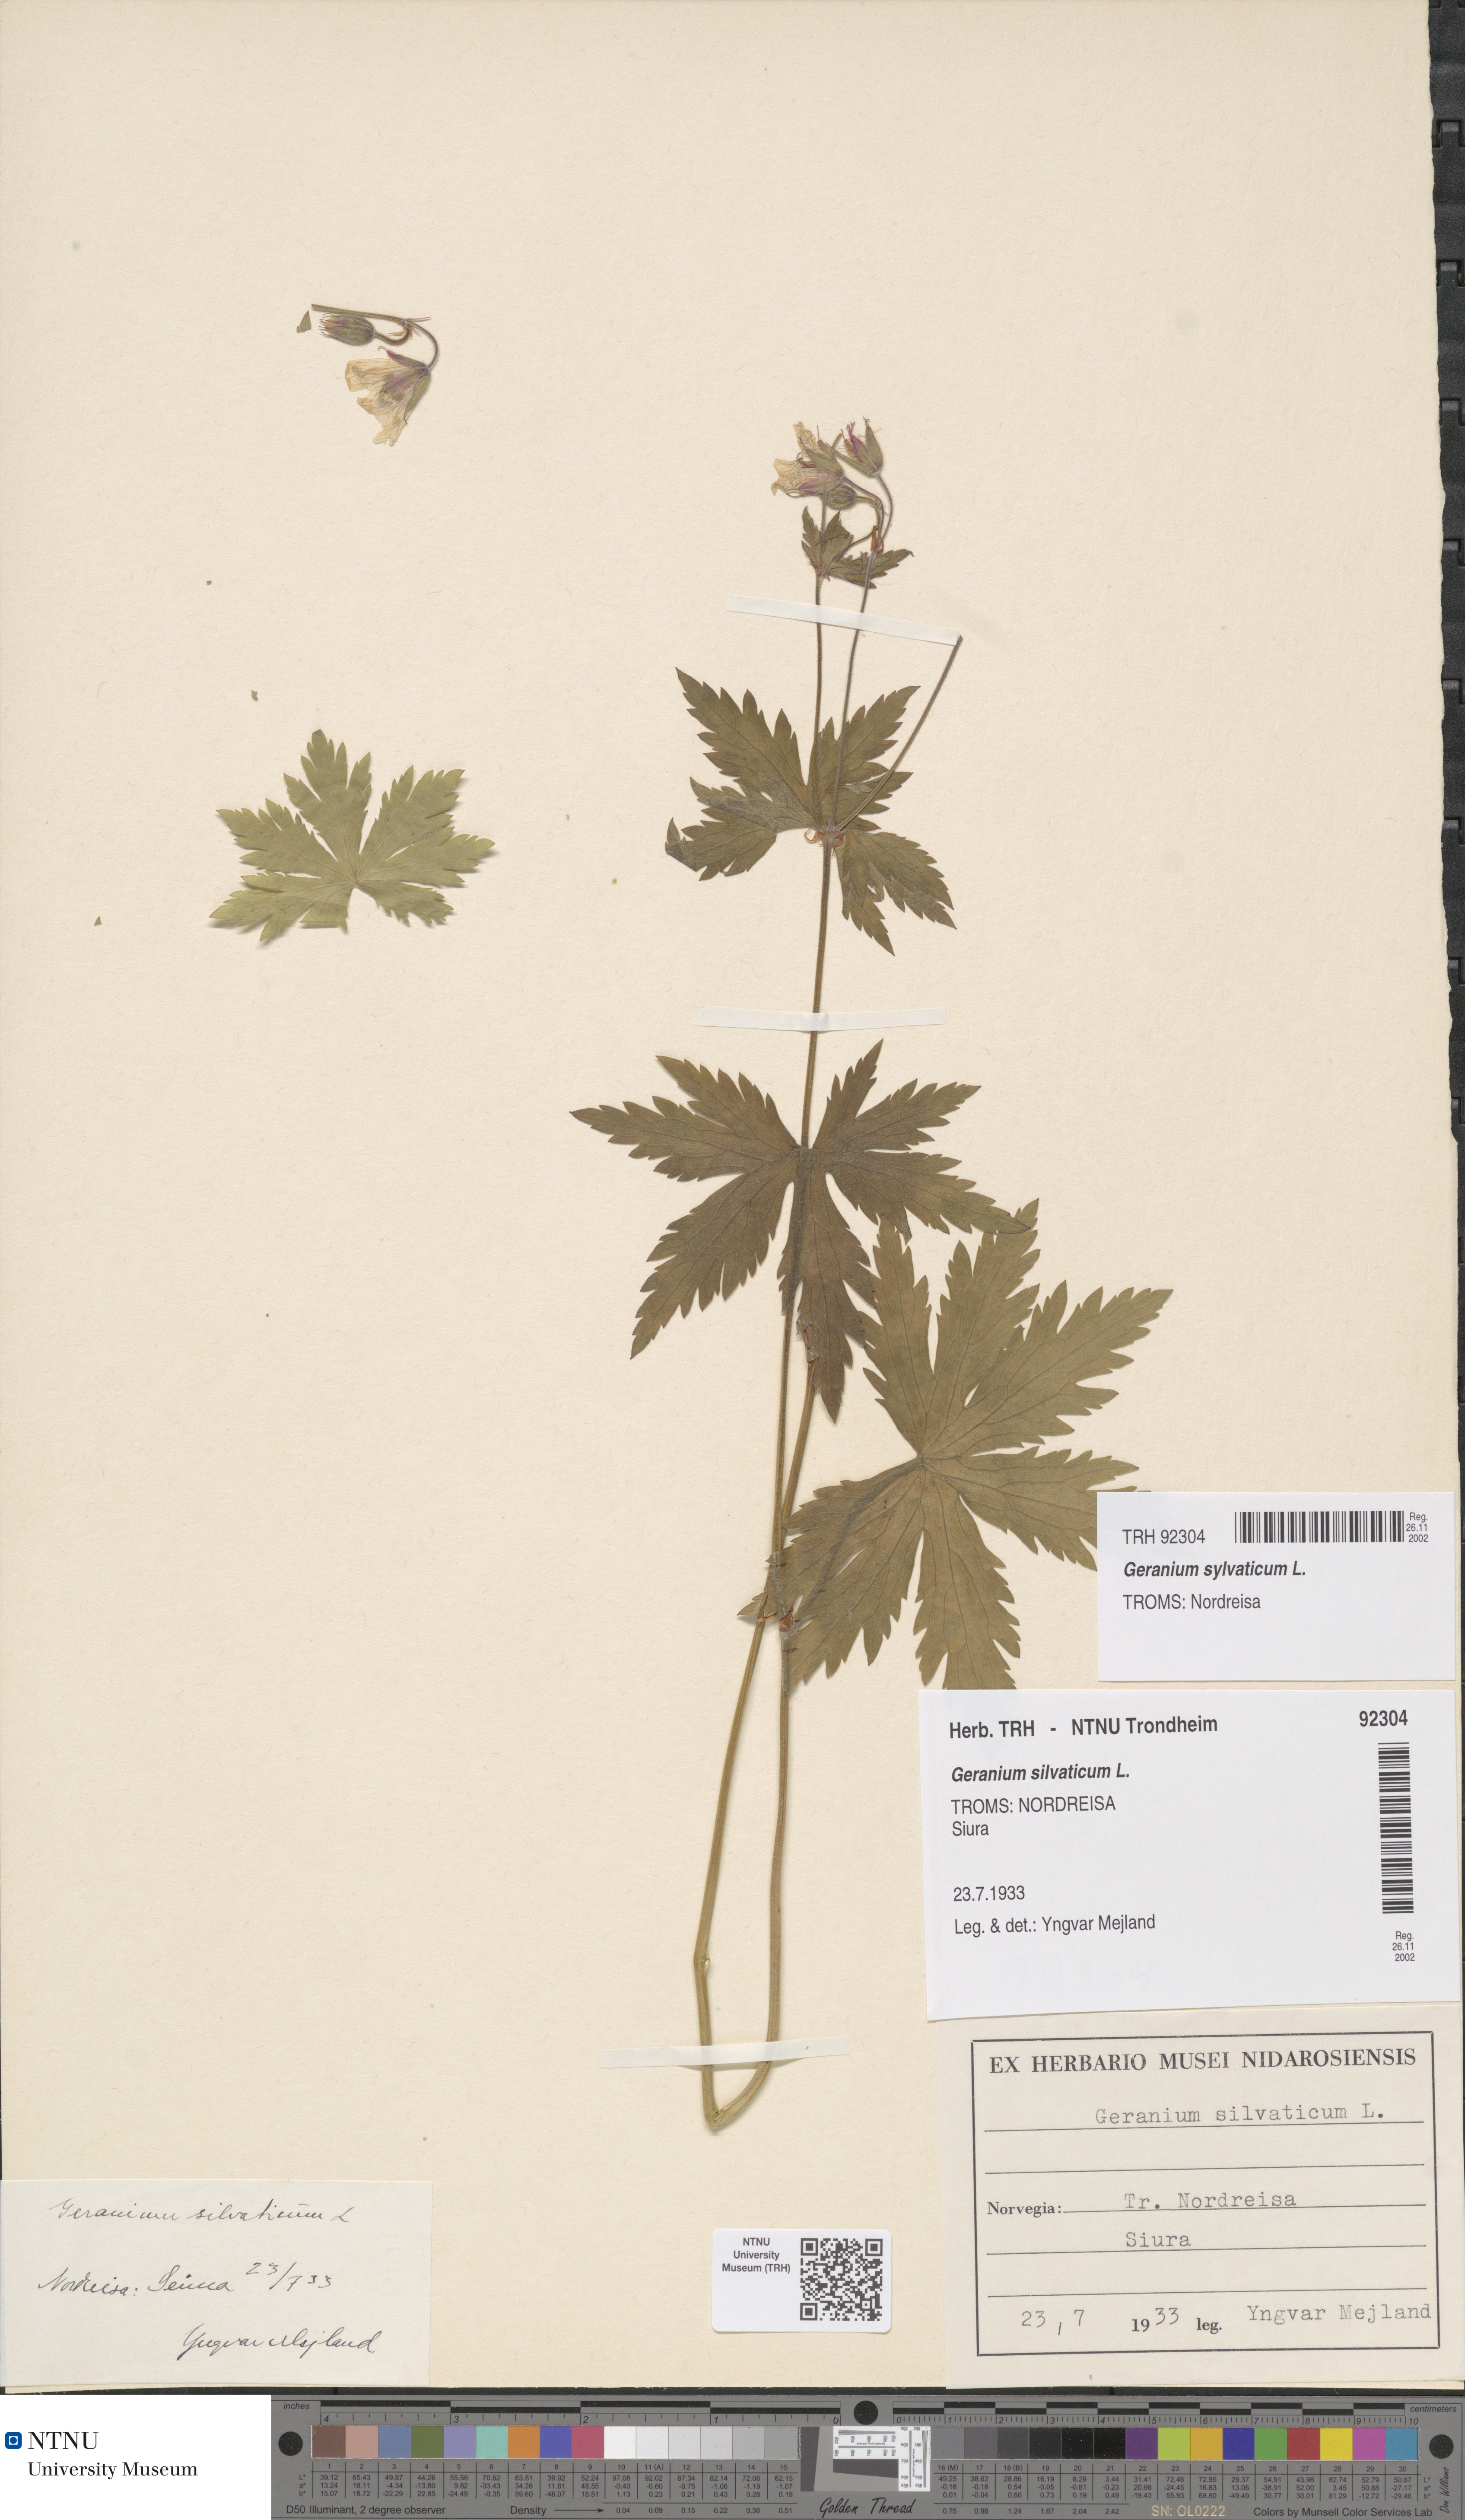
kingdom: Plantae
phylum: Tracheophyta
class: Magnoliopsida
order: Geraniales
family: Geraniaceae
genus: Geranium
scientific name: Geranium sylvaticum
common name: Wood crane's-bill
